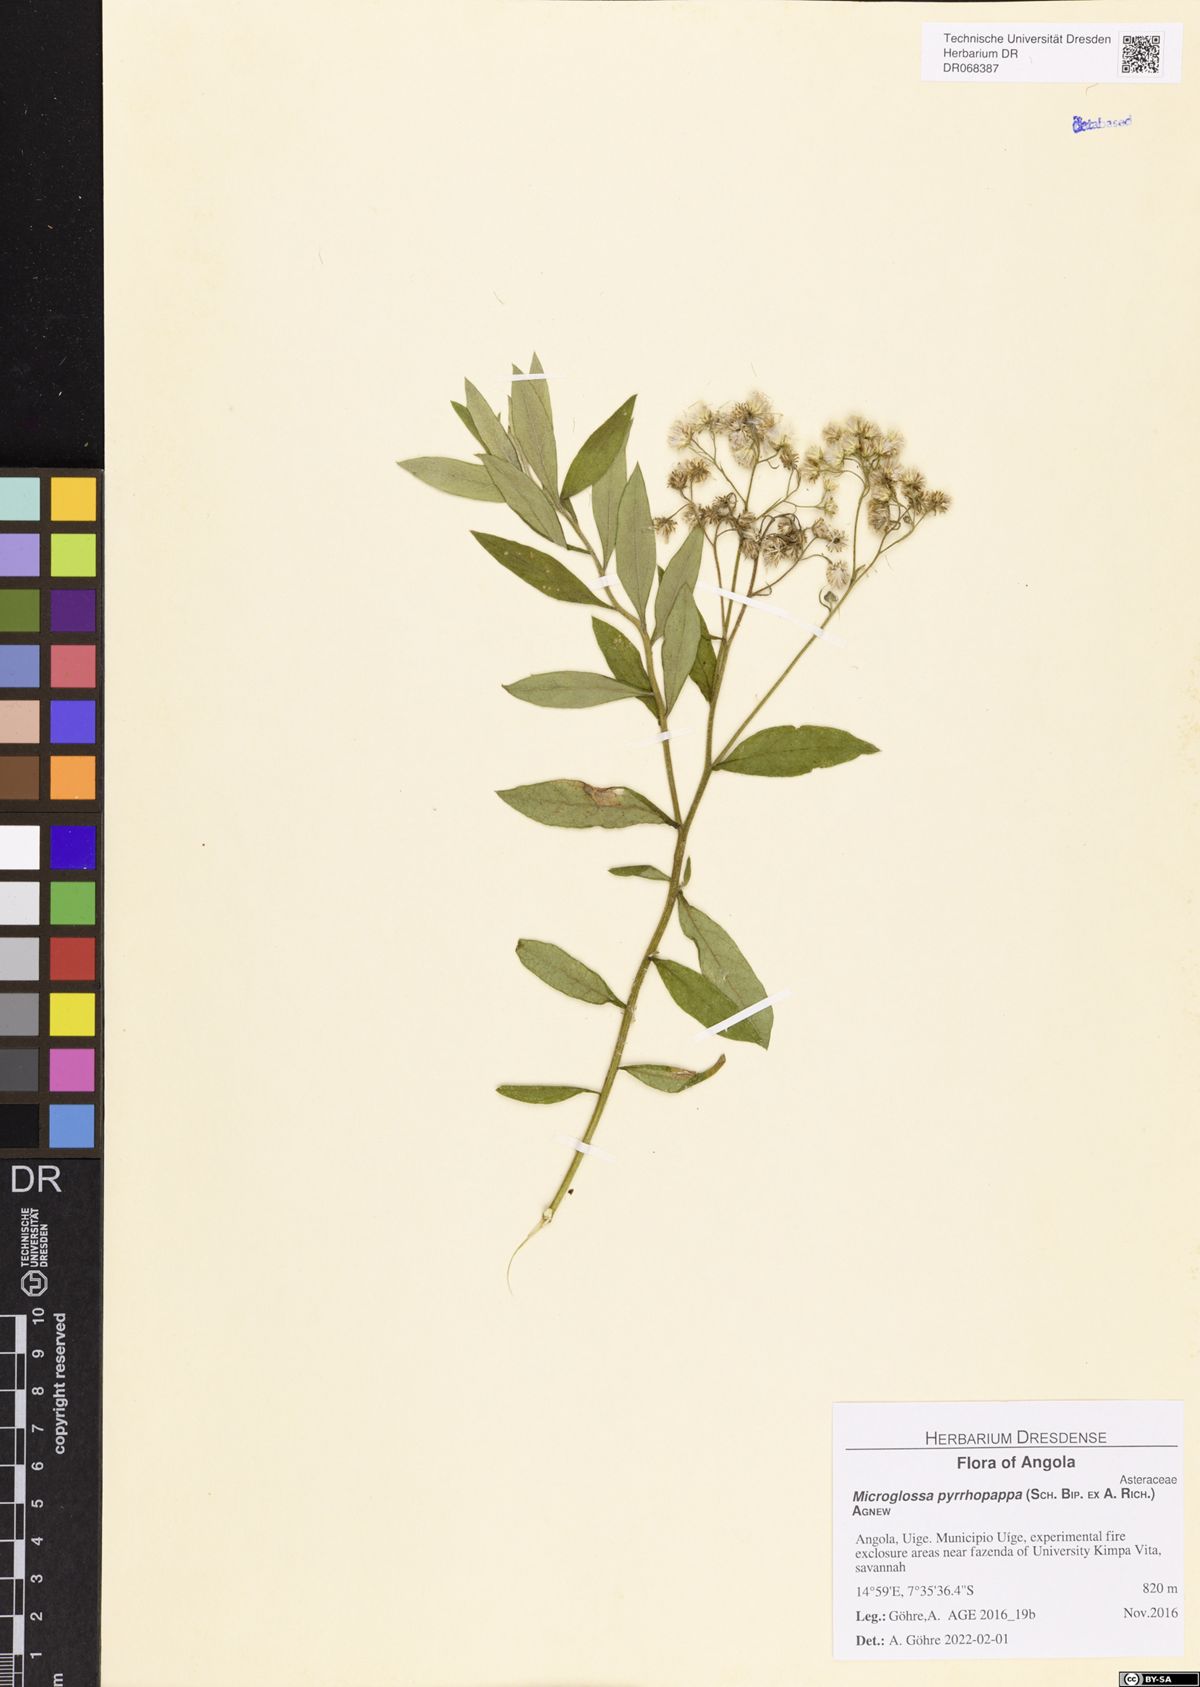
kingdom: Plantae
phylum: Tracheophyta
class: Magnoliopsida
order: Asterales
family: Asteraceae
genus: Microglossa
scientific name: Microglossa pyrrhopappa
